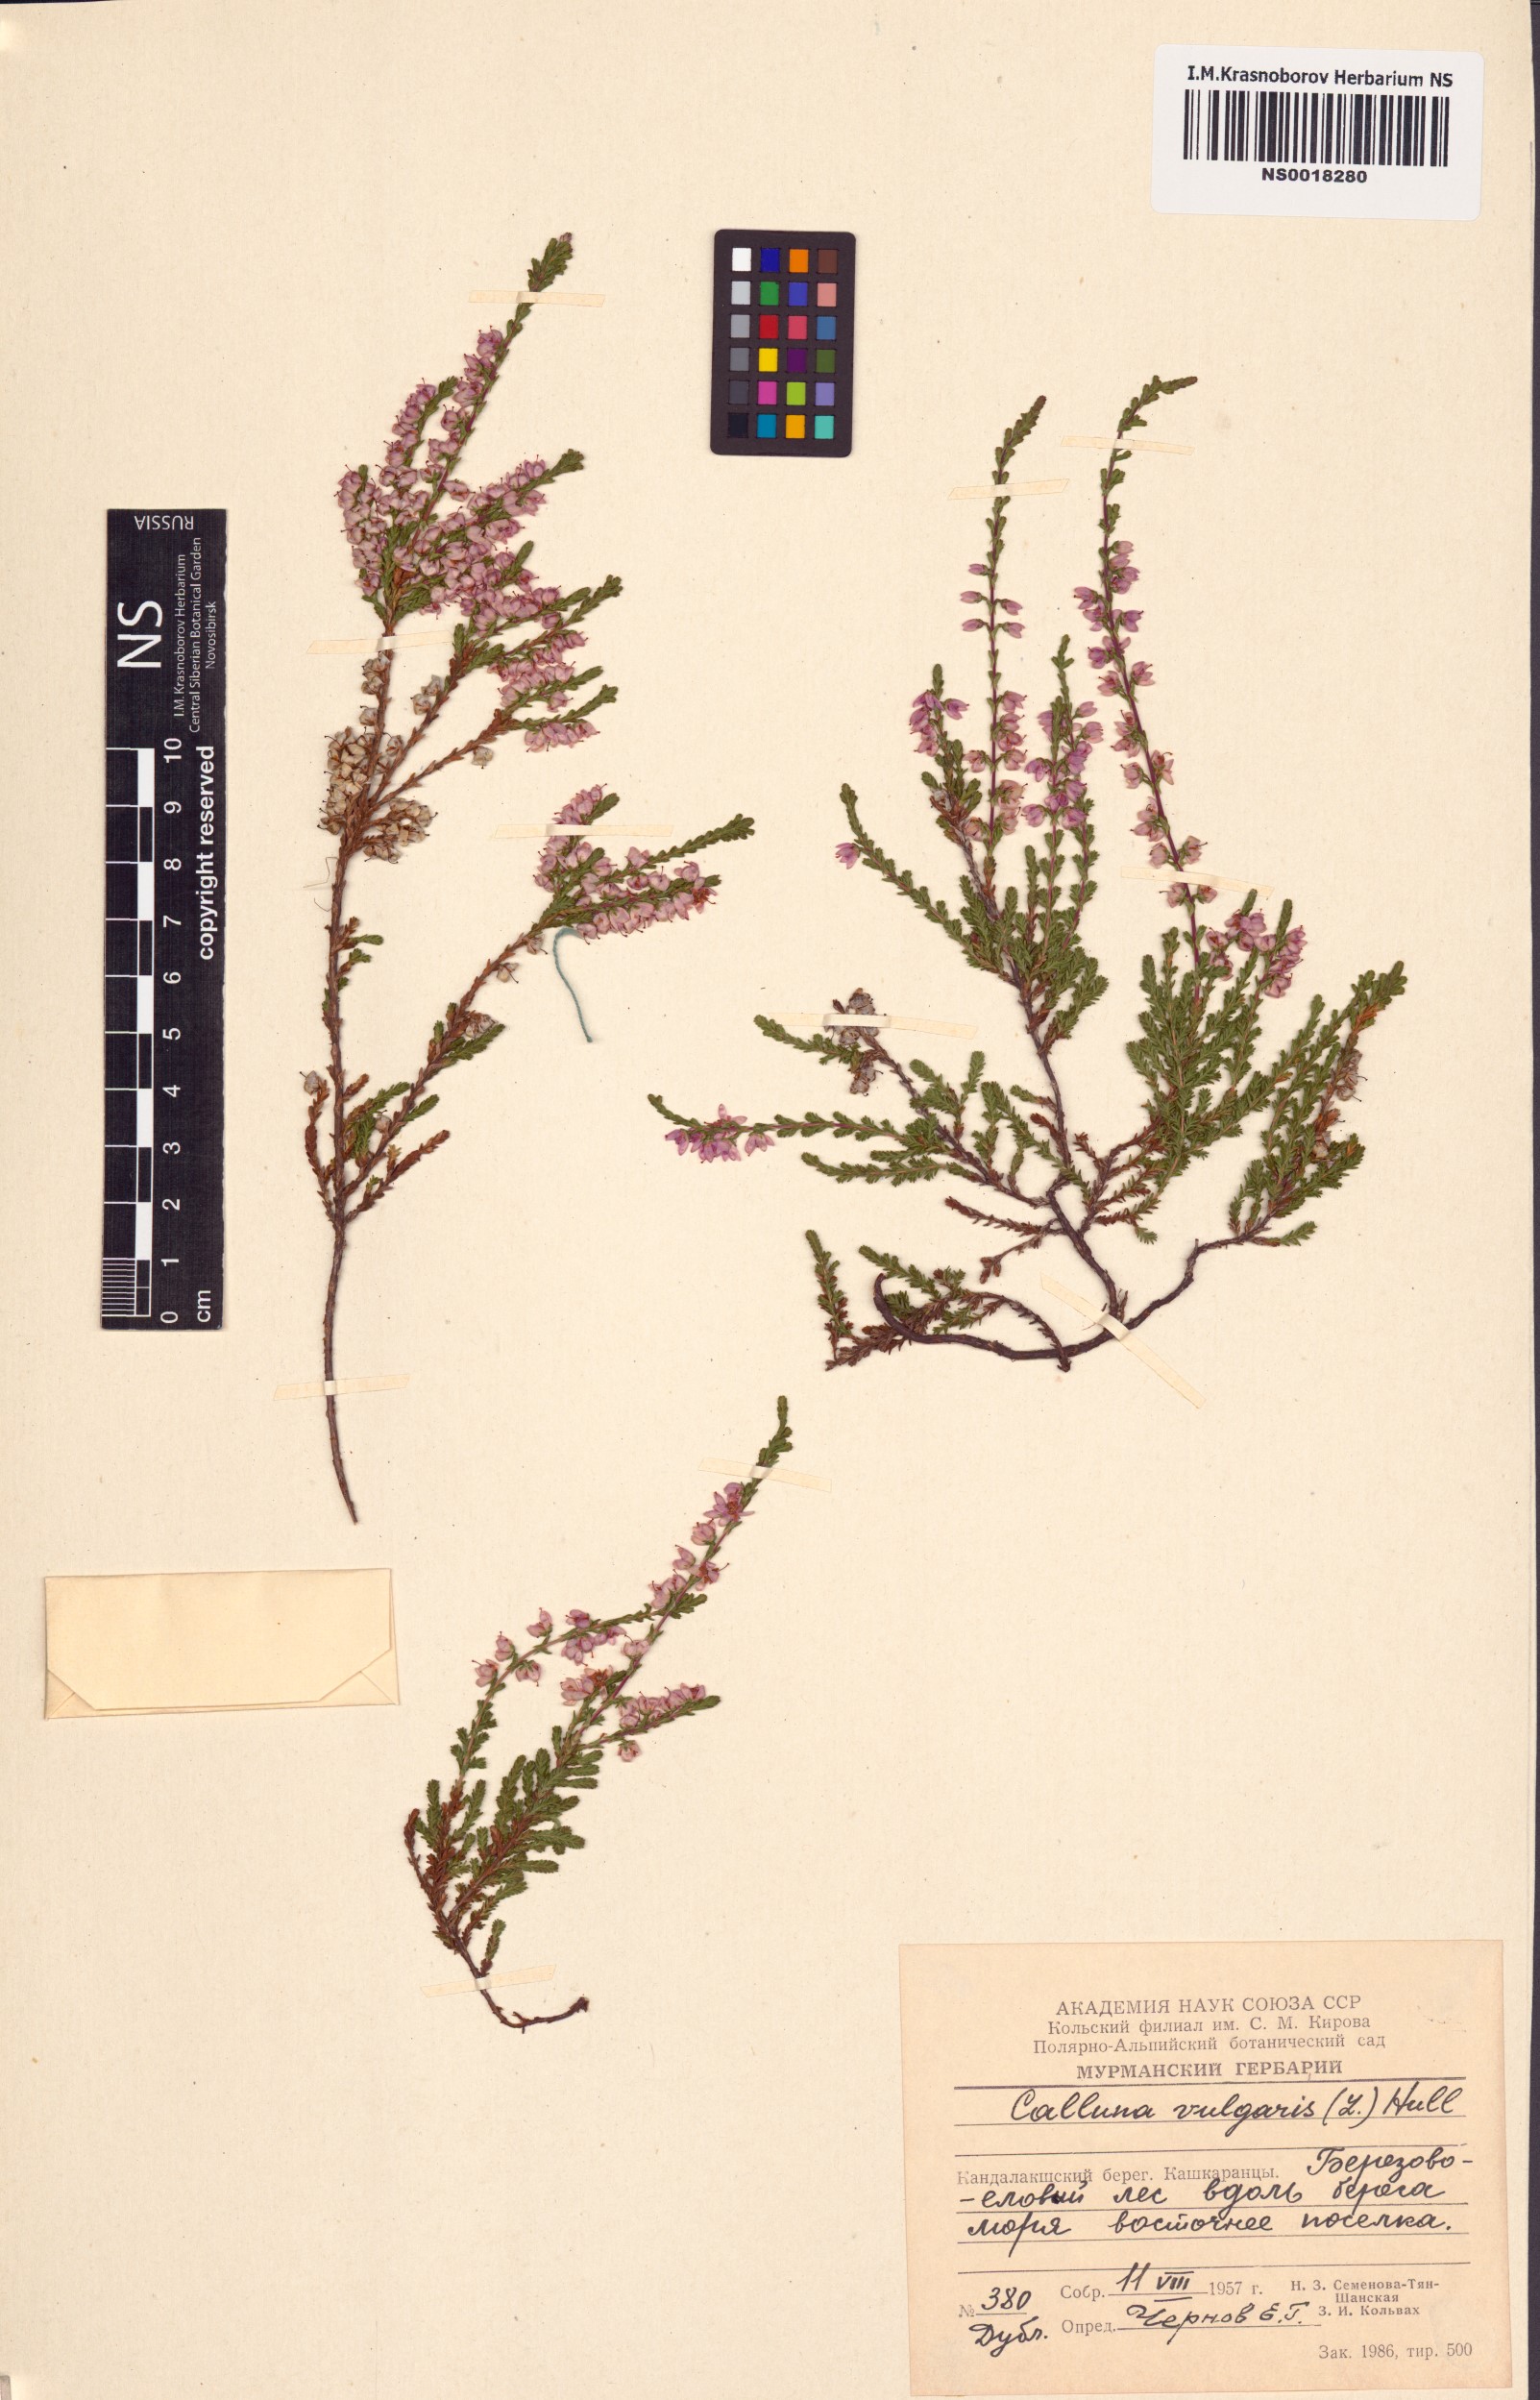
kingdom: Plantae
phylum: Tracheophyta
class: Magnoliopsida
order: Ericales
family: Ericaceae
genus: Calluna
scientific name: Calluna vulgaris
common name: Heather
